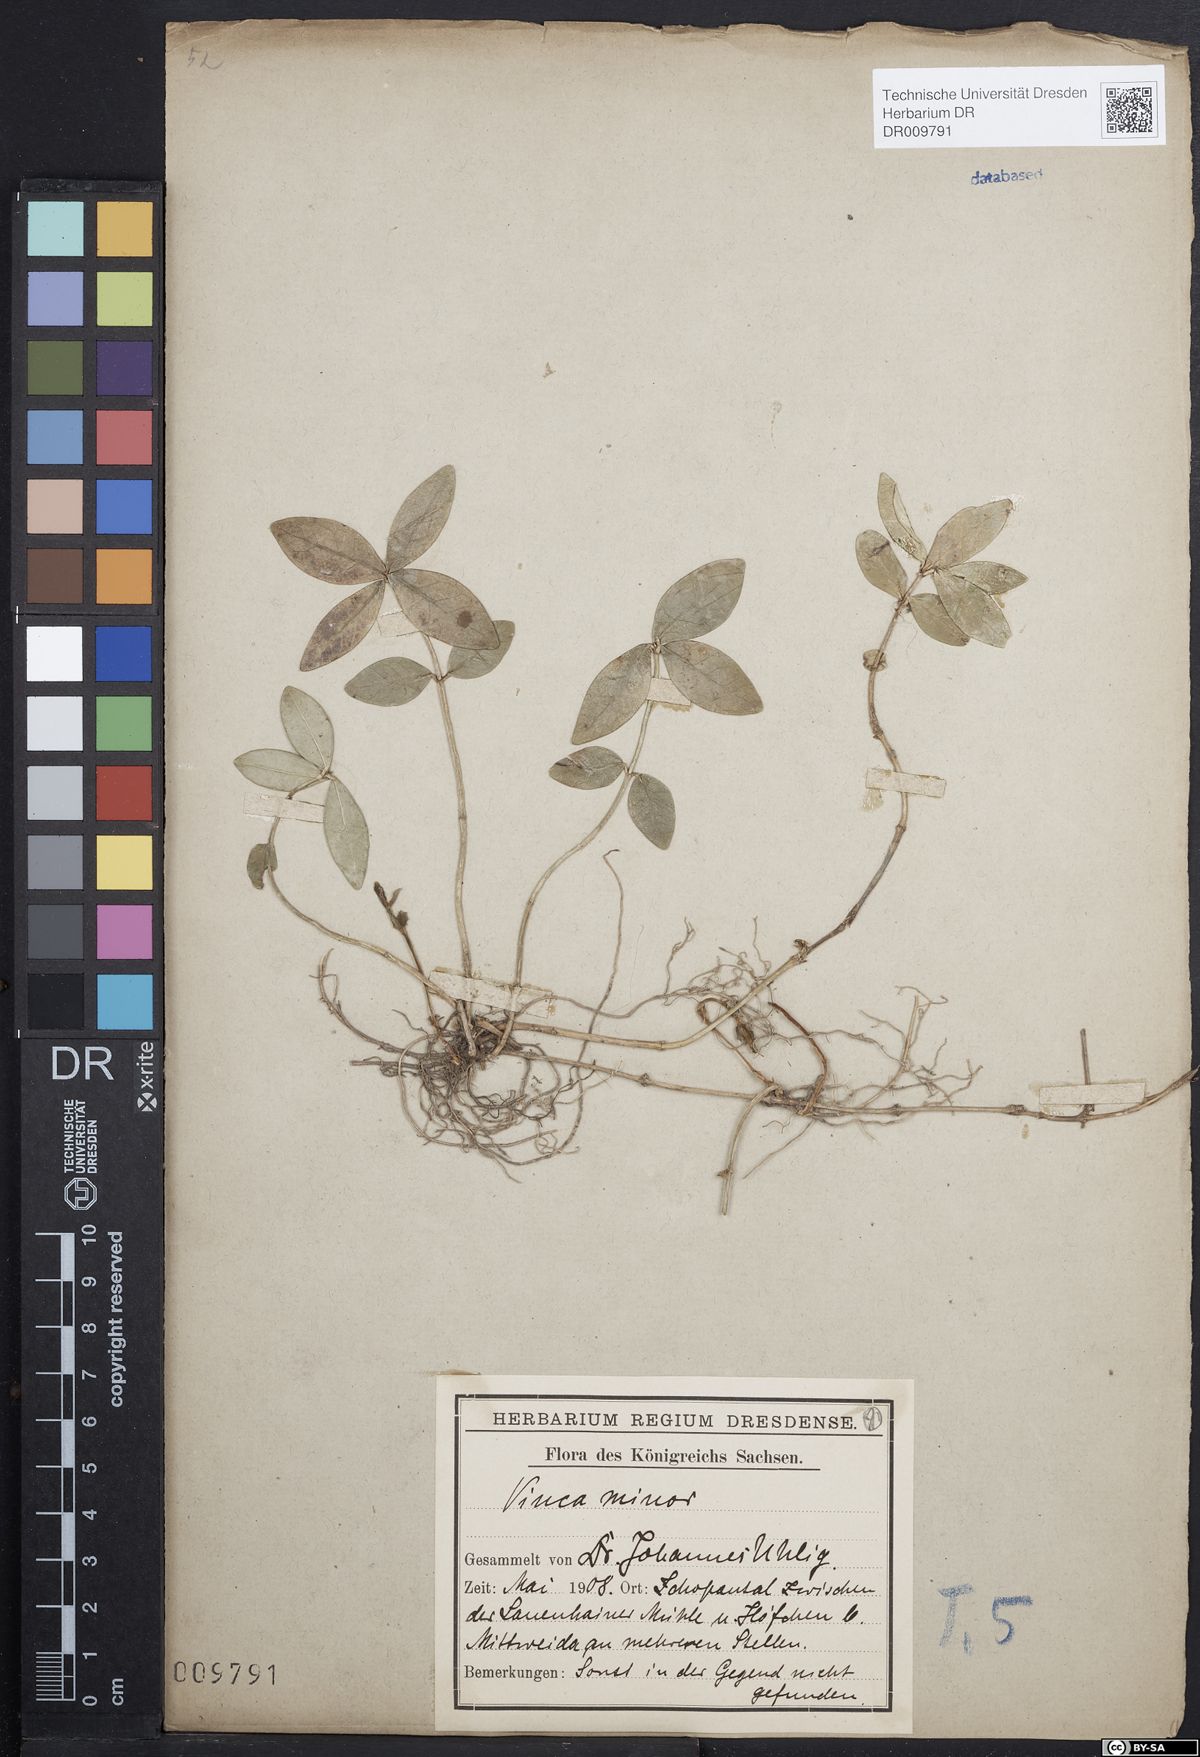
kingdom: Plantae
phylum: Tracheophyta
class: Magnoliopsida
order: Gentianales
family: Apocynaceae
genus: Vinca
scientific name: Vinca minor
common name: Lesser periwinkle
